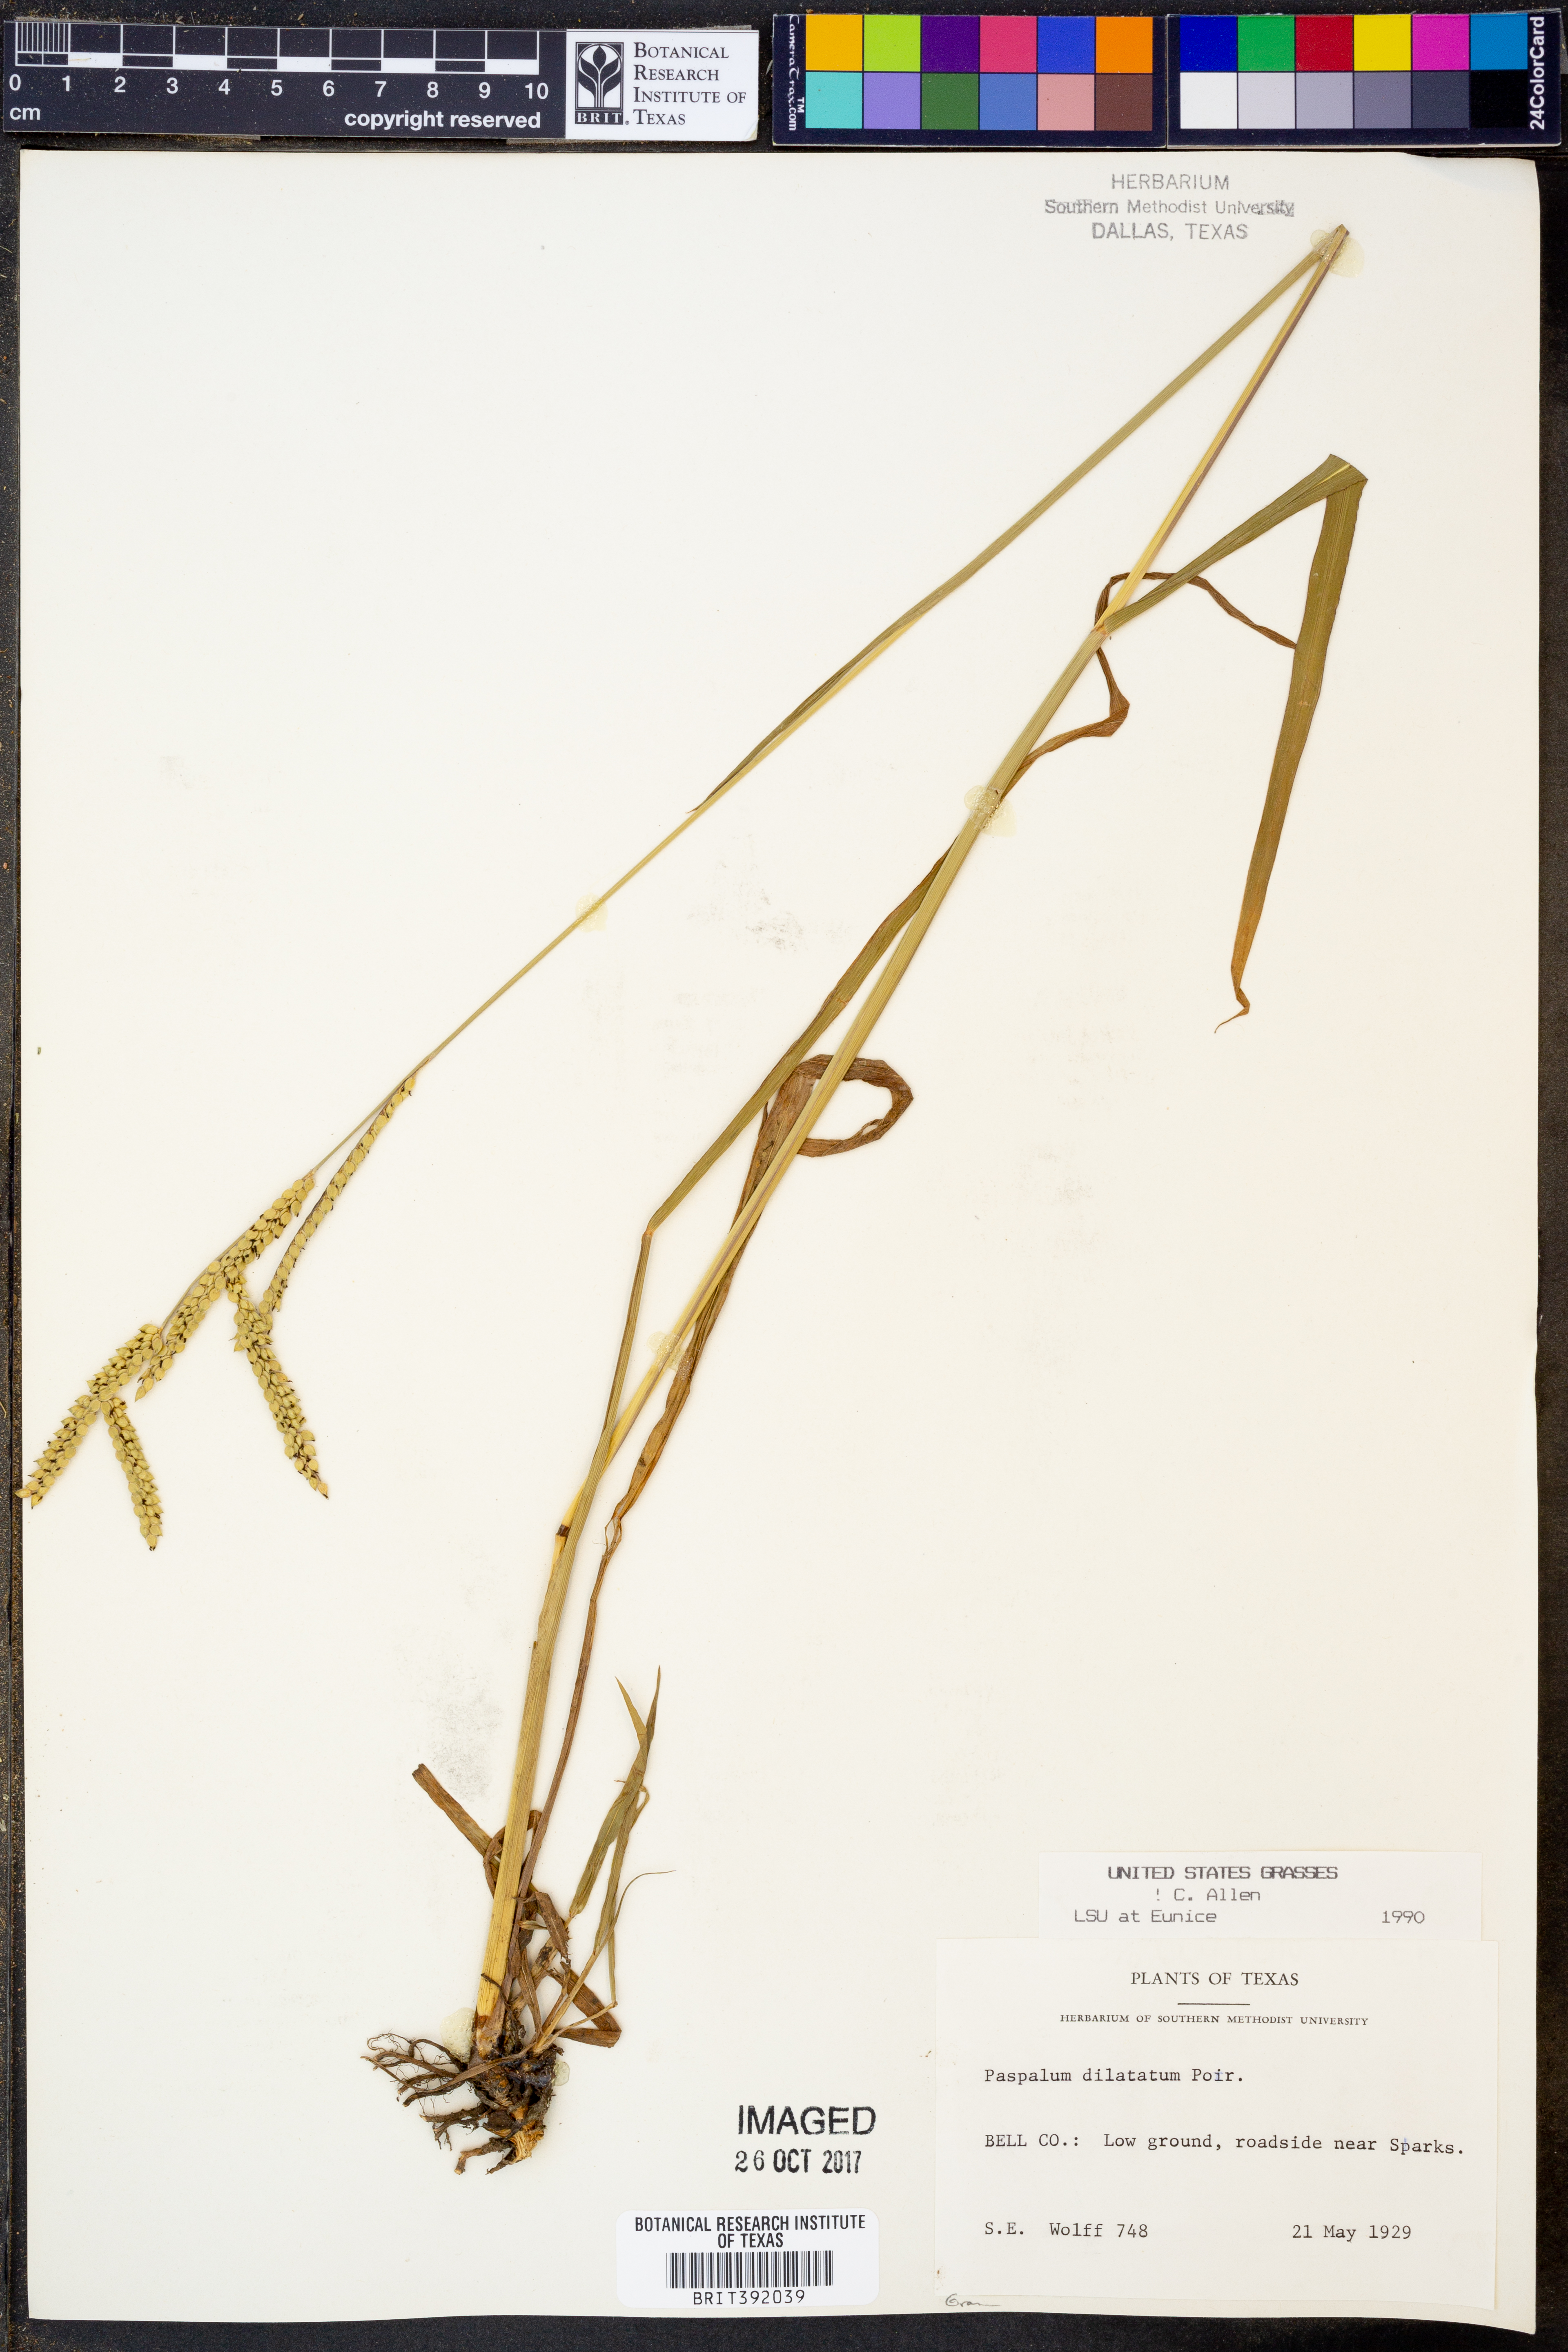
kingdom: Plantae
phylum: Tracheophyta
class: Liliopsida
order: Poales
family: Poaceae
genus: Paspalum
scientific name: Paspalum dilatatum
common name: Dallisgrass
